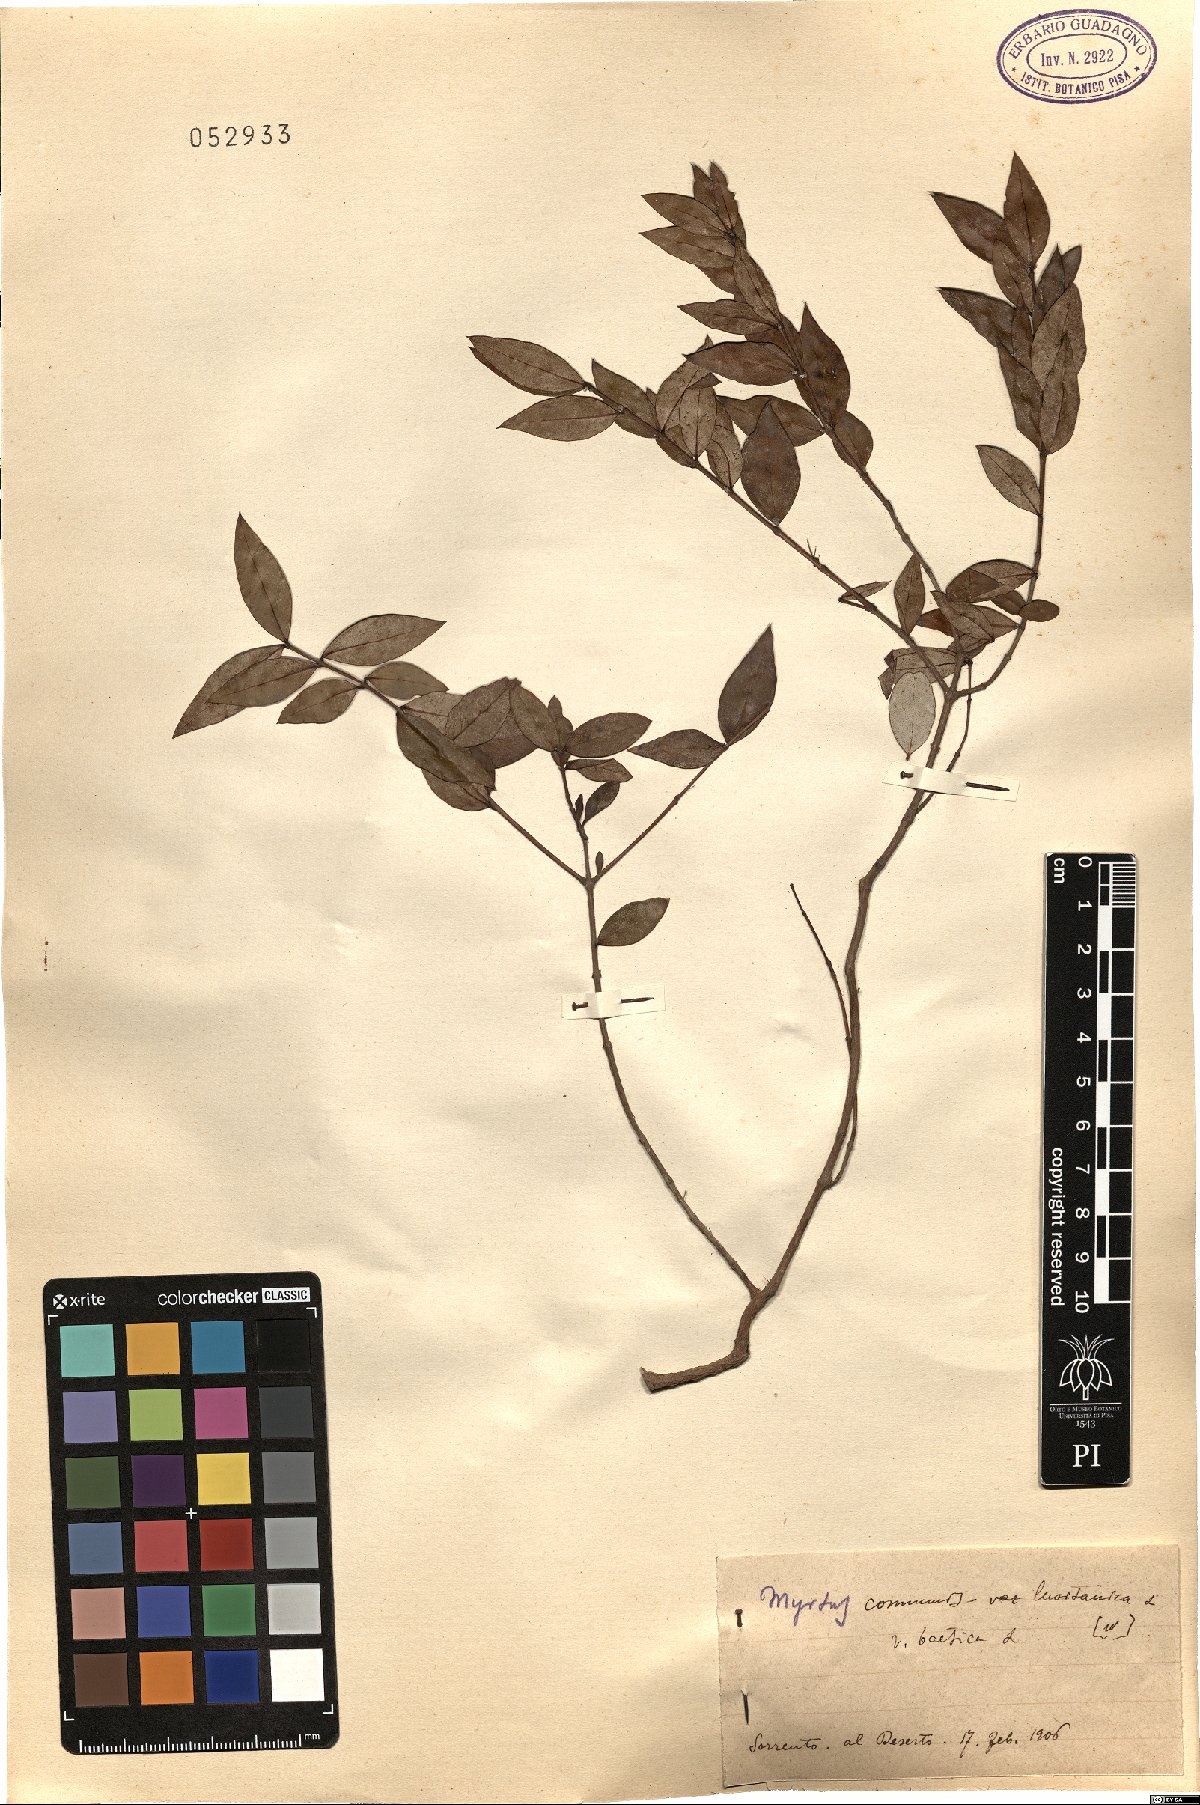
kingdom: Plantae
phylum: Tracheophyta
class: Magnoliopsida
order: Myrtales
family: Myrtaceae
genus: Myrtus
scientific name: Myrtus communis
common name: Myrtle
